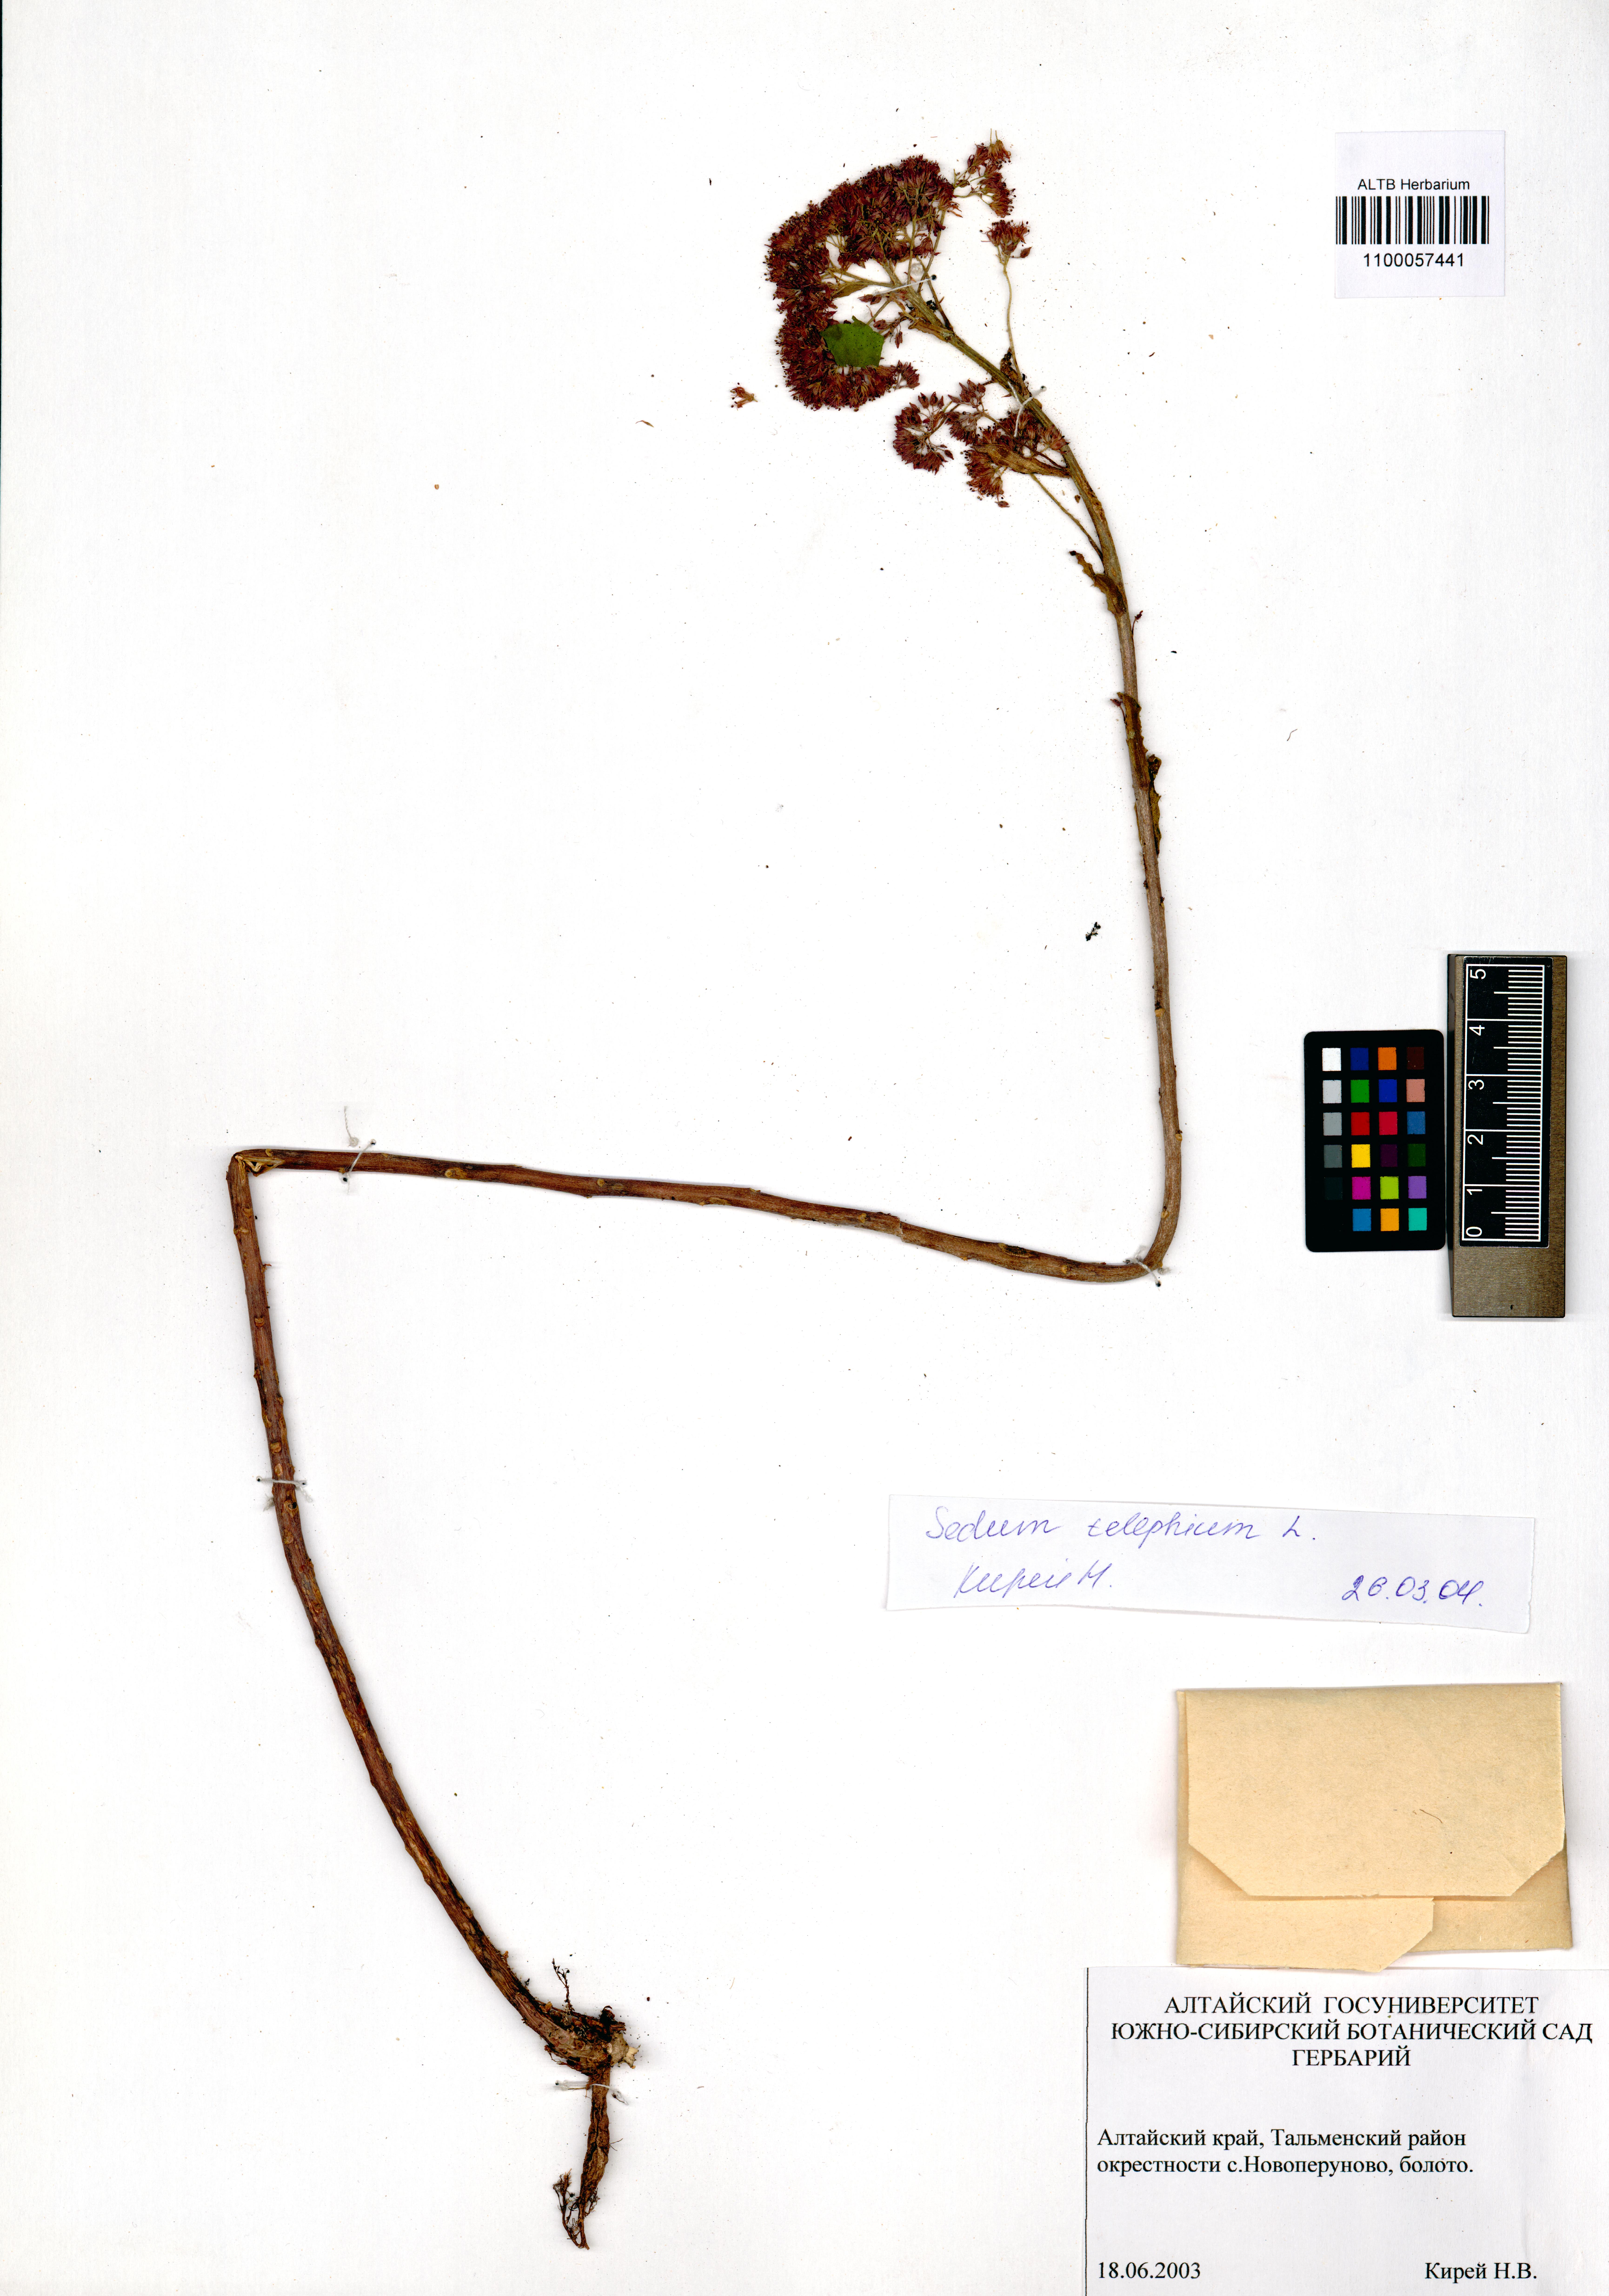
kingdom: Plantae
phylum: Tracheophyta
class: Magnoliopsida
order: Saxifragales
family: Crassulaceae
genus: Hylotelephium
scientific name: Hylotelephium telephium
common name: Live-forever
